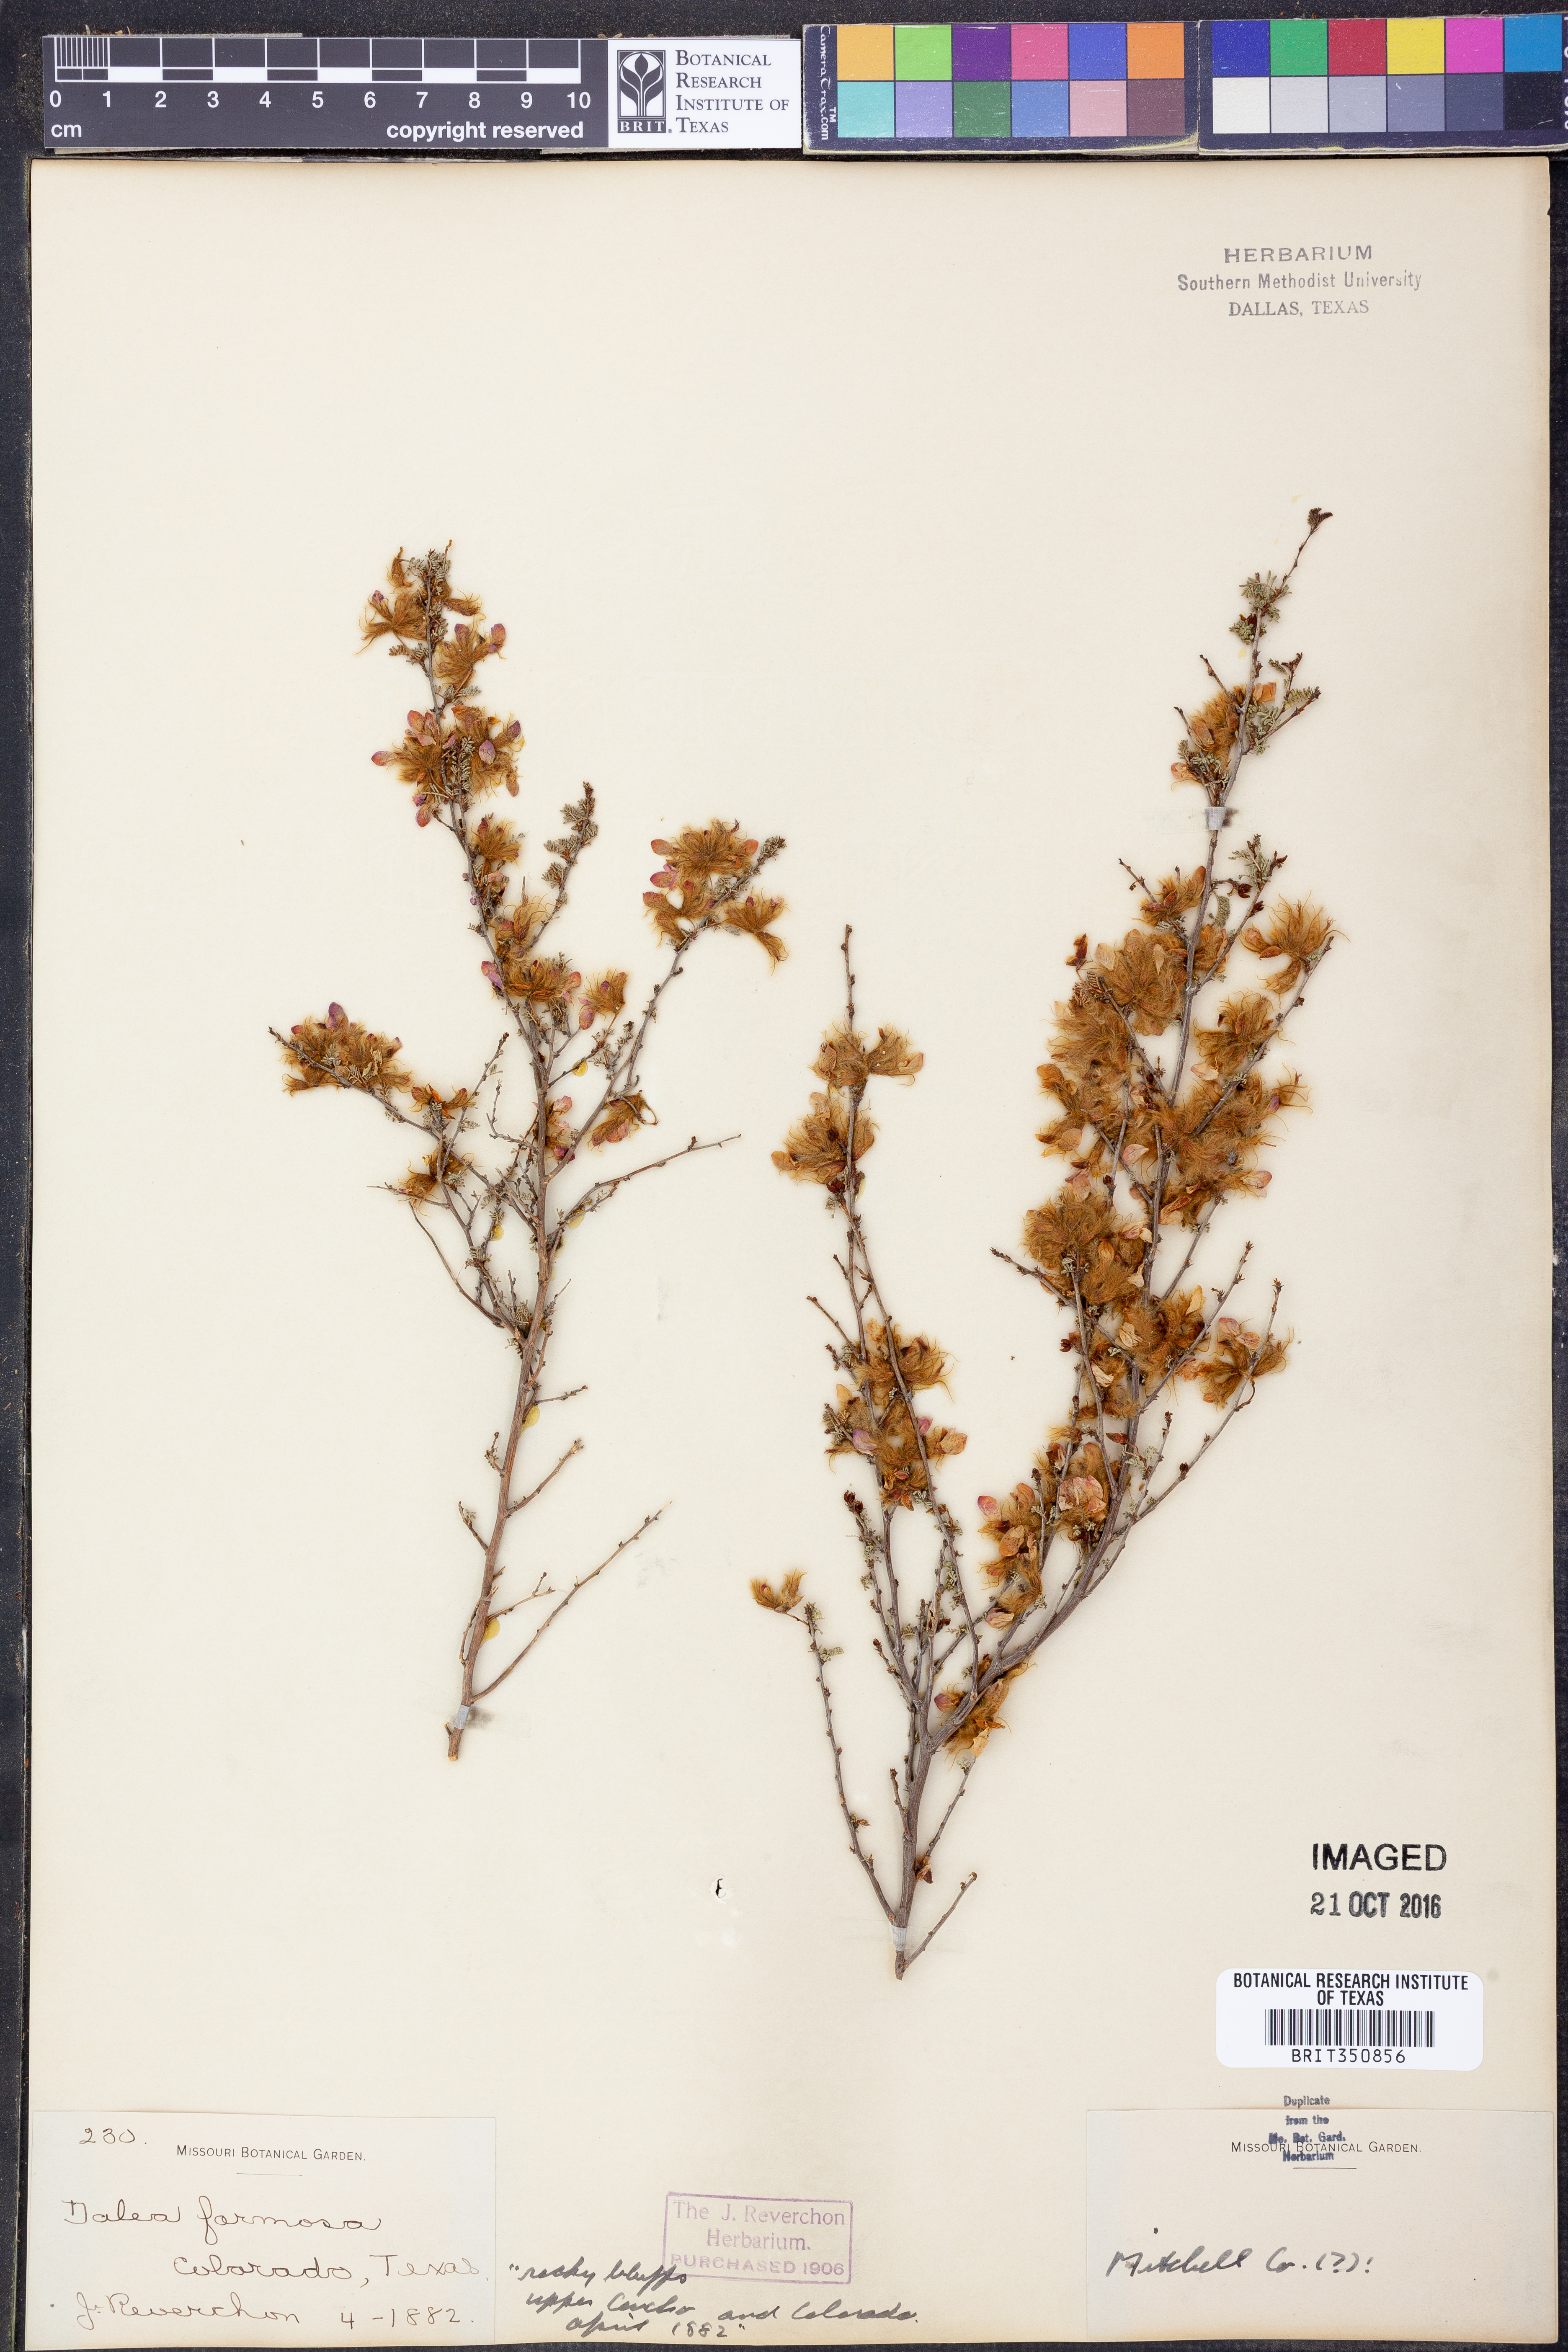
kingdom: Plantae
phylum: Tracheophyta
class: Magnoliopsida
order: Fabales
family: Fabaceae
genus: Dalea
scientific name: Dalea formosa
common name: Feather-plume dalea
